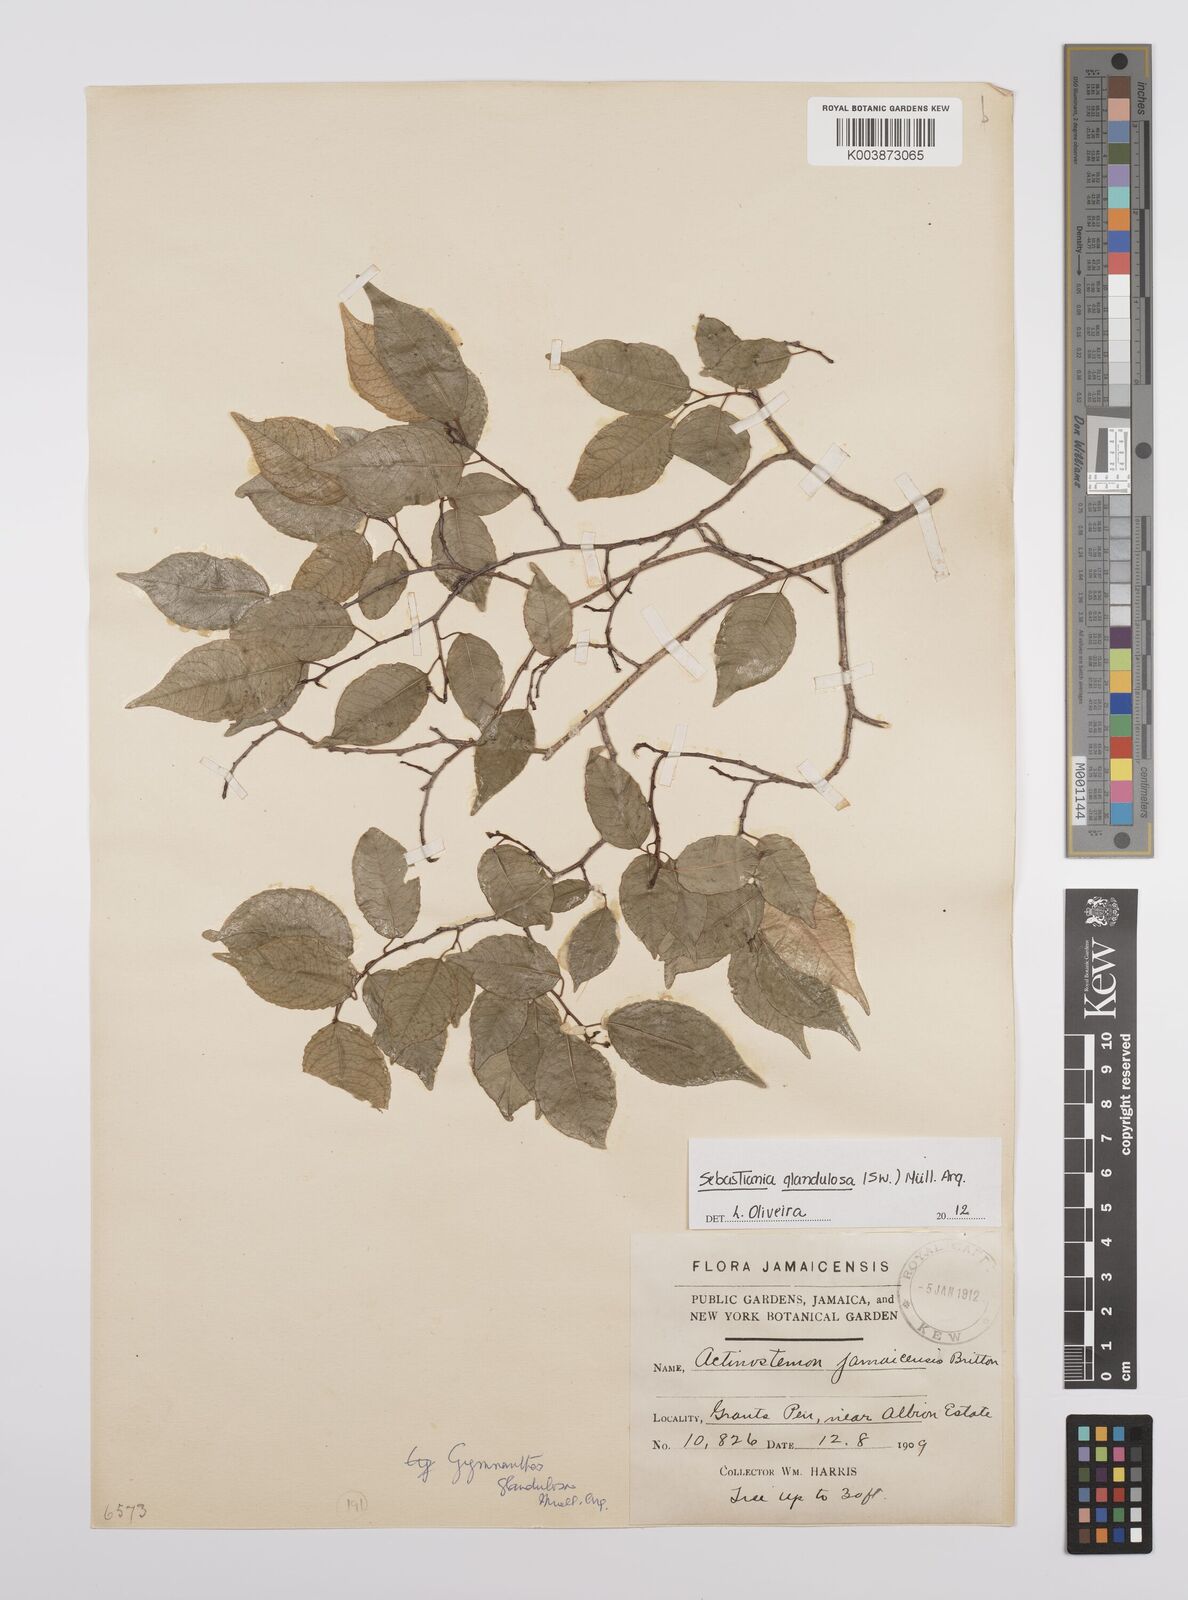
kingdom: Plantae
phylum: Tracheophyta
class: Magnoliopsida
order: Malpighiales
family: Euphorbiaceae
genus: Sebastiania
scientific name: Sebastiania glandulosa
